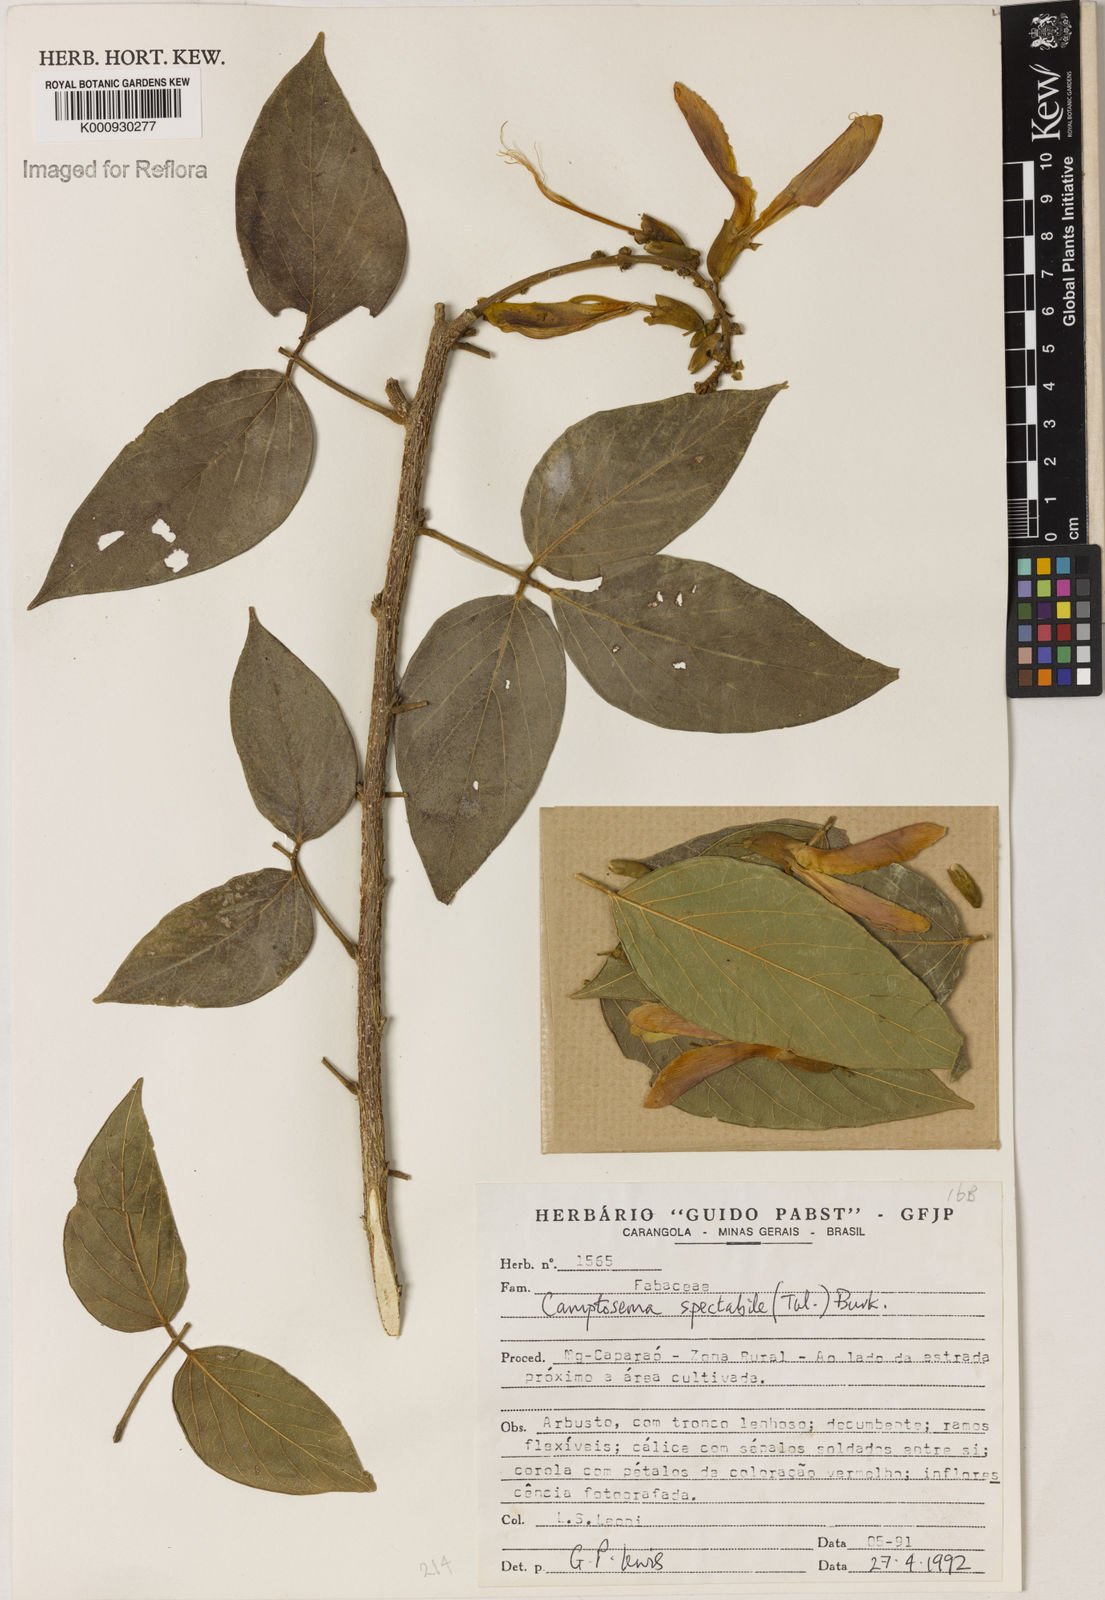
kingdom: Plantae
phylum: Tracheophyta
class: Magnoliopsida
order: Fabales
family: Fabaceae
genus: Camptosema
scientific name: Camptosema spectabile
